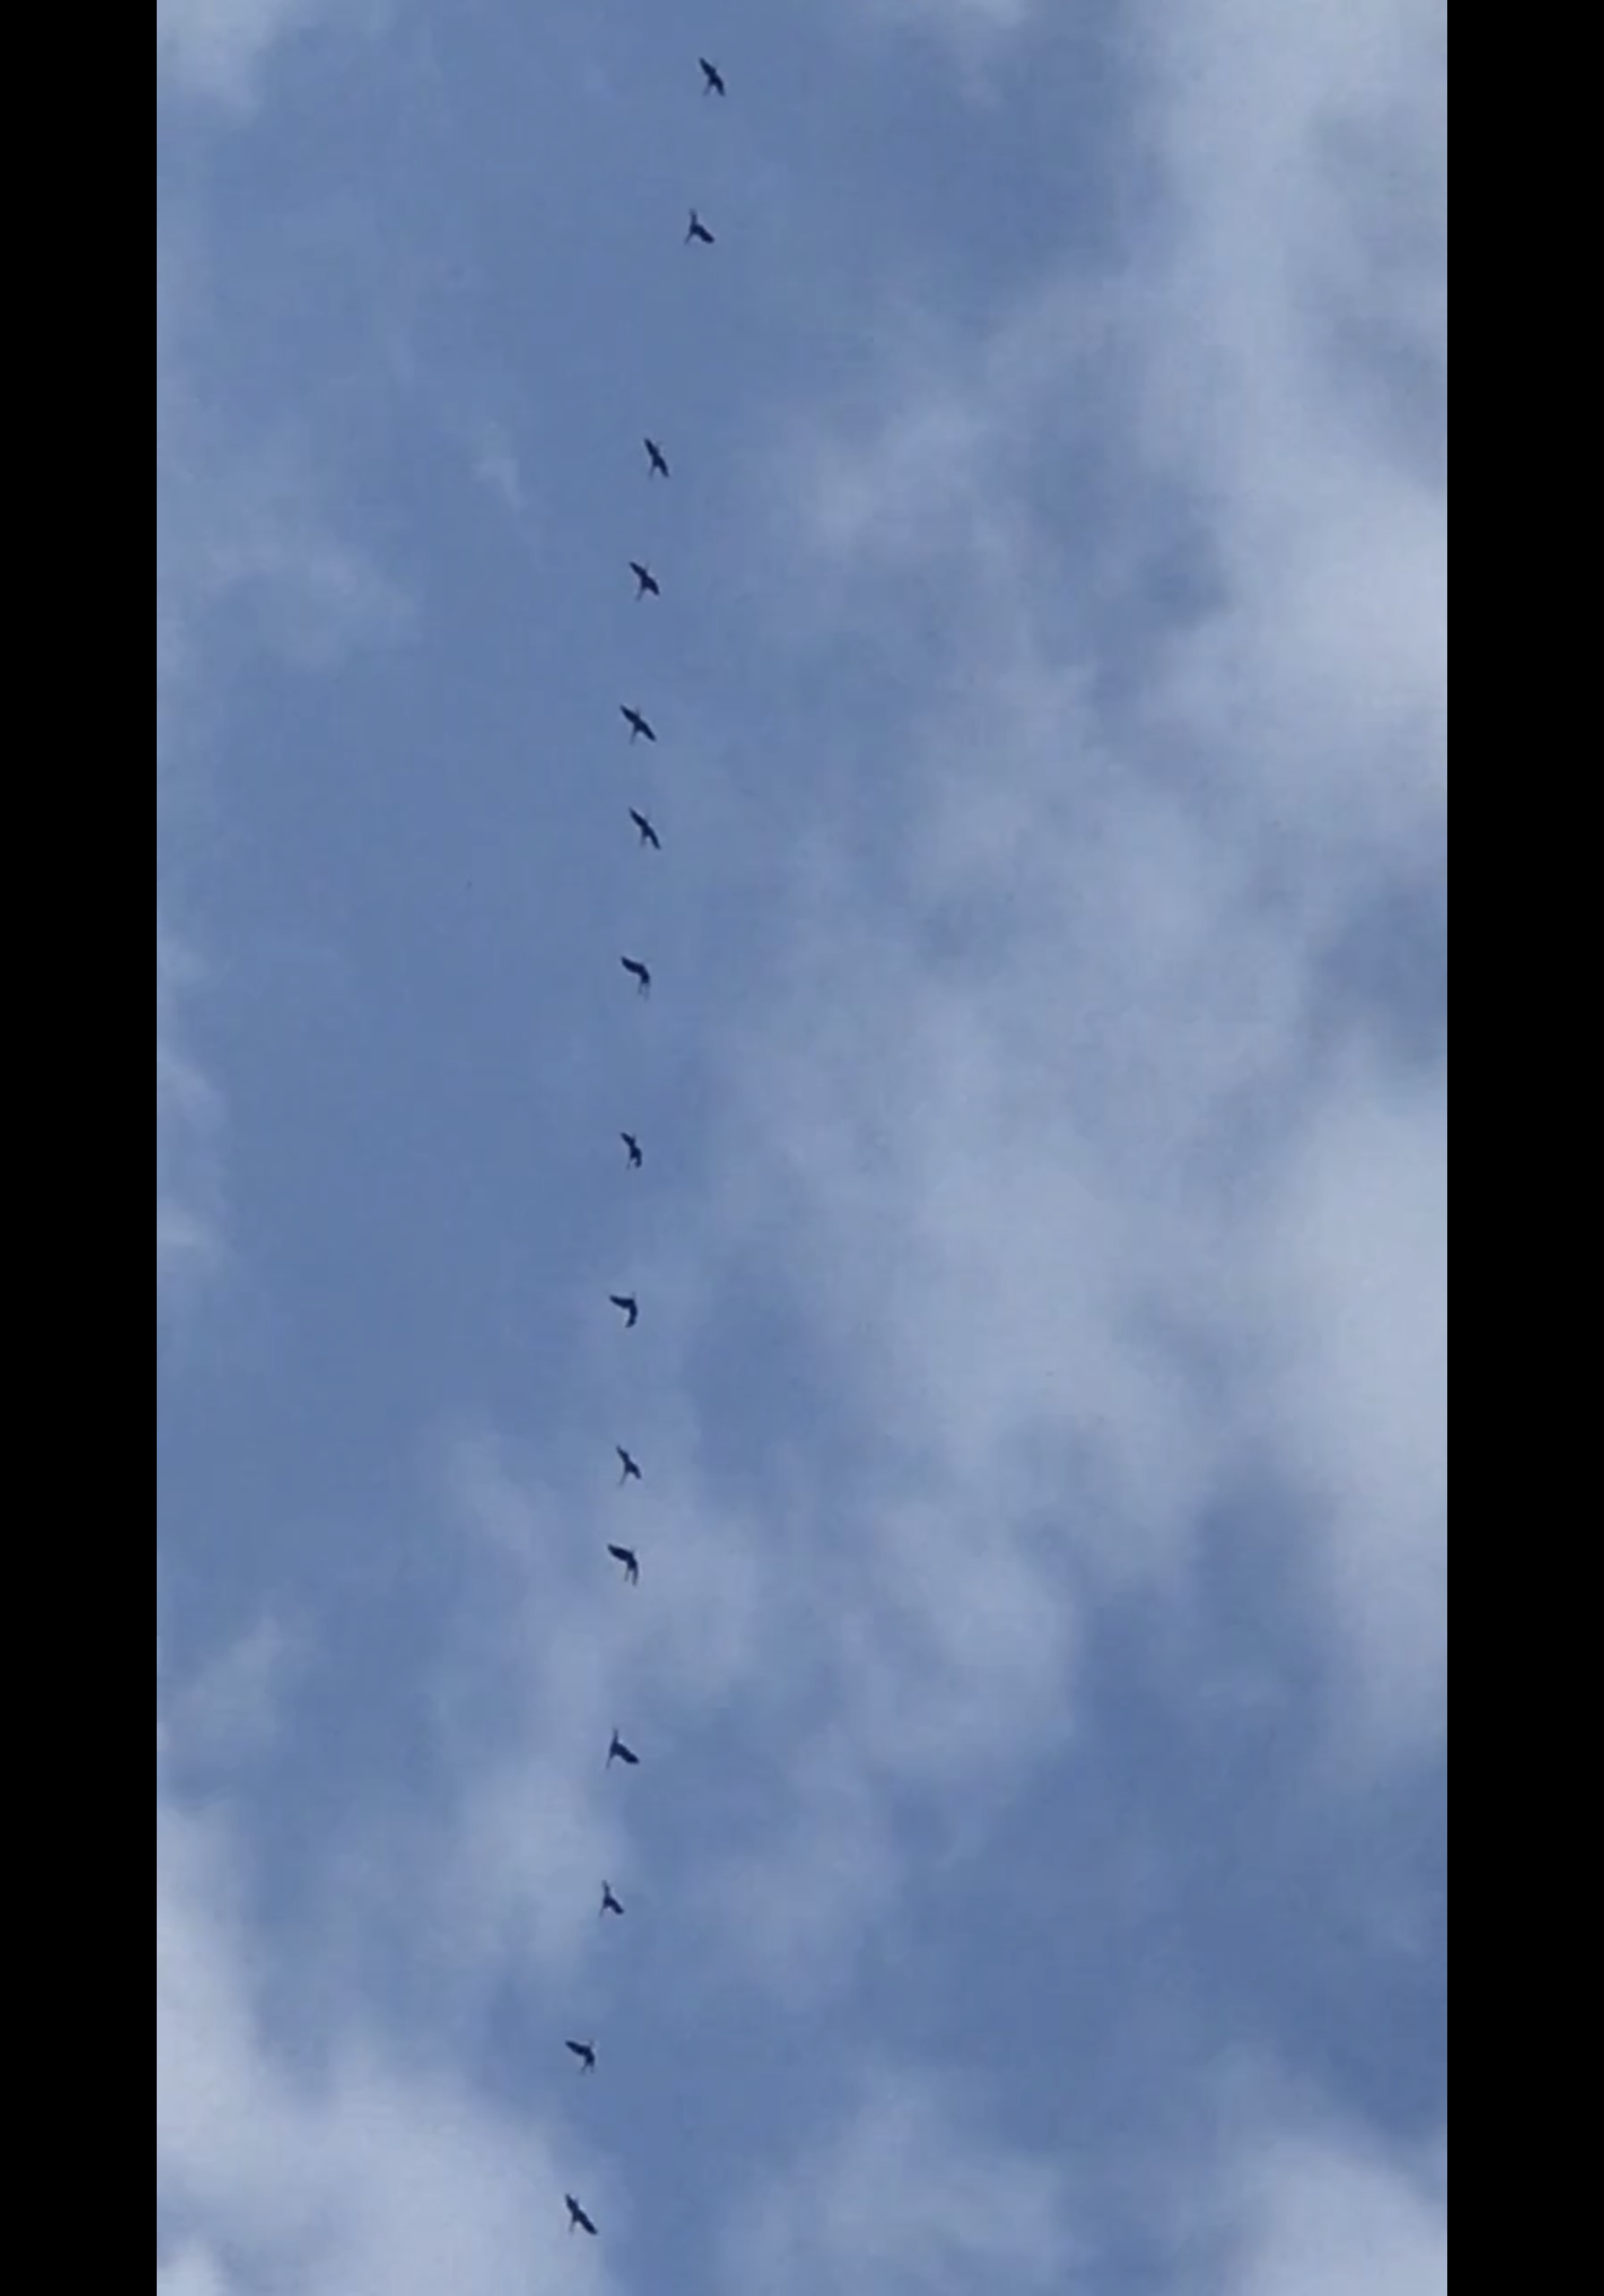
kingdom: Animalia
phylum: Chordata
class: Aves
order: Gruiformes
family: Gruidae
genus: Grus
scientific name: Grus grus
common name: Trane
